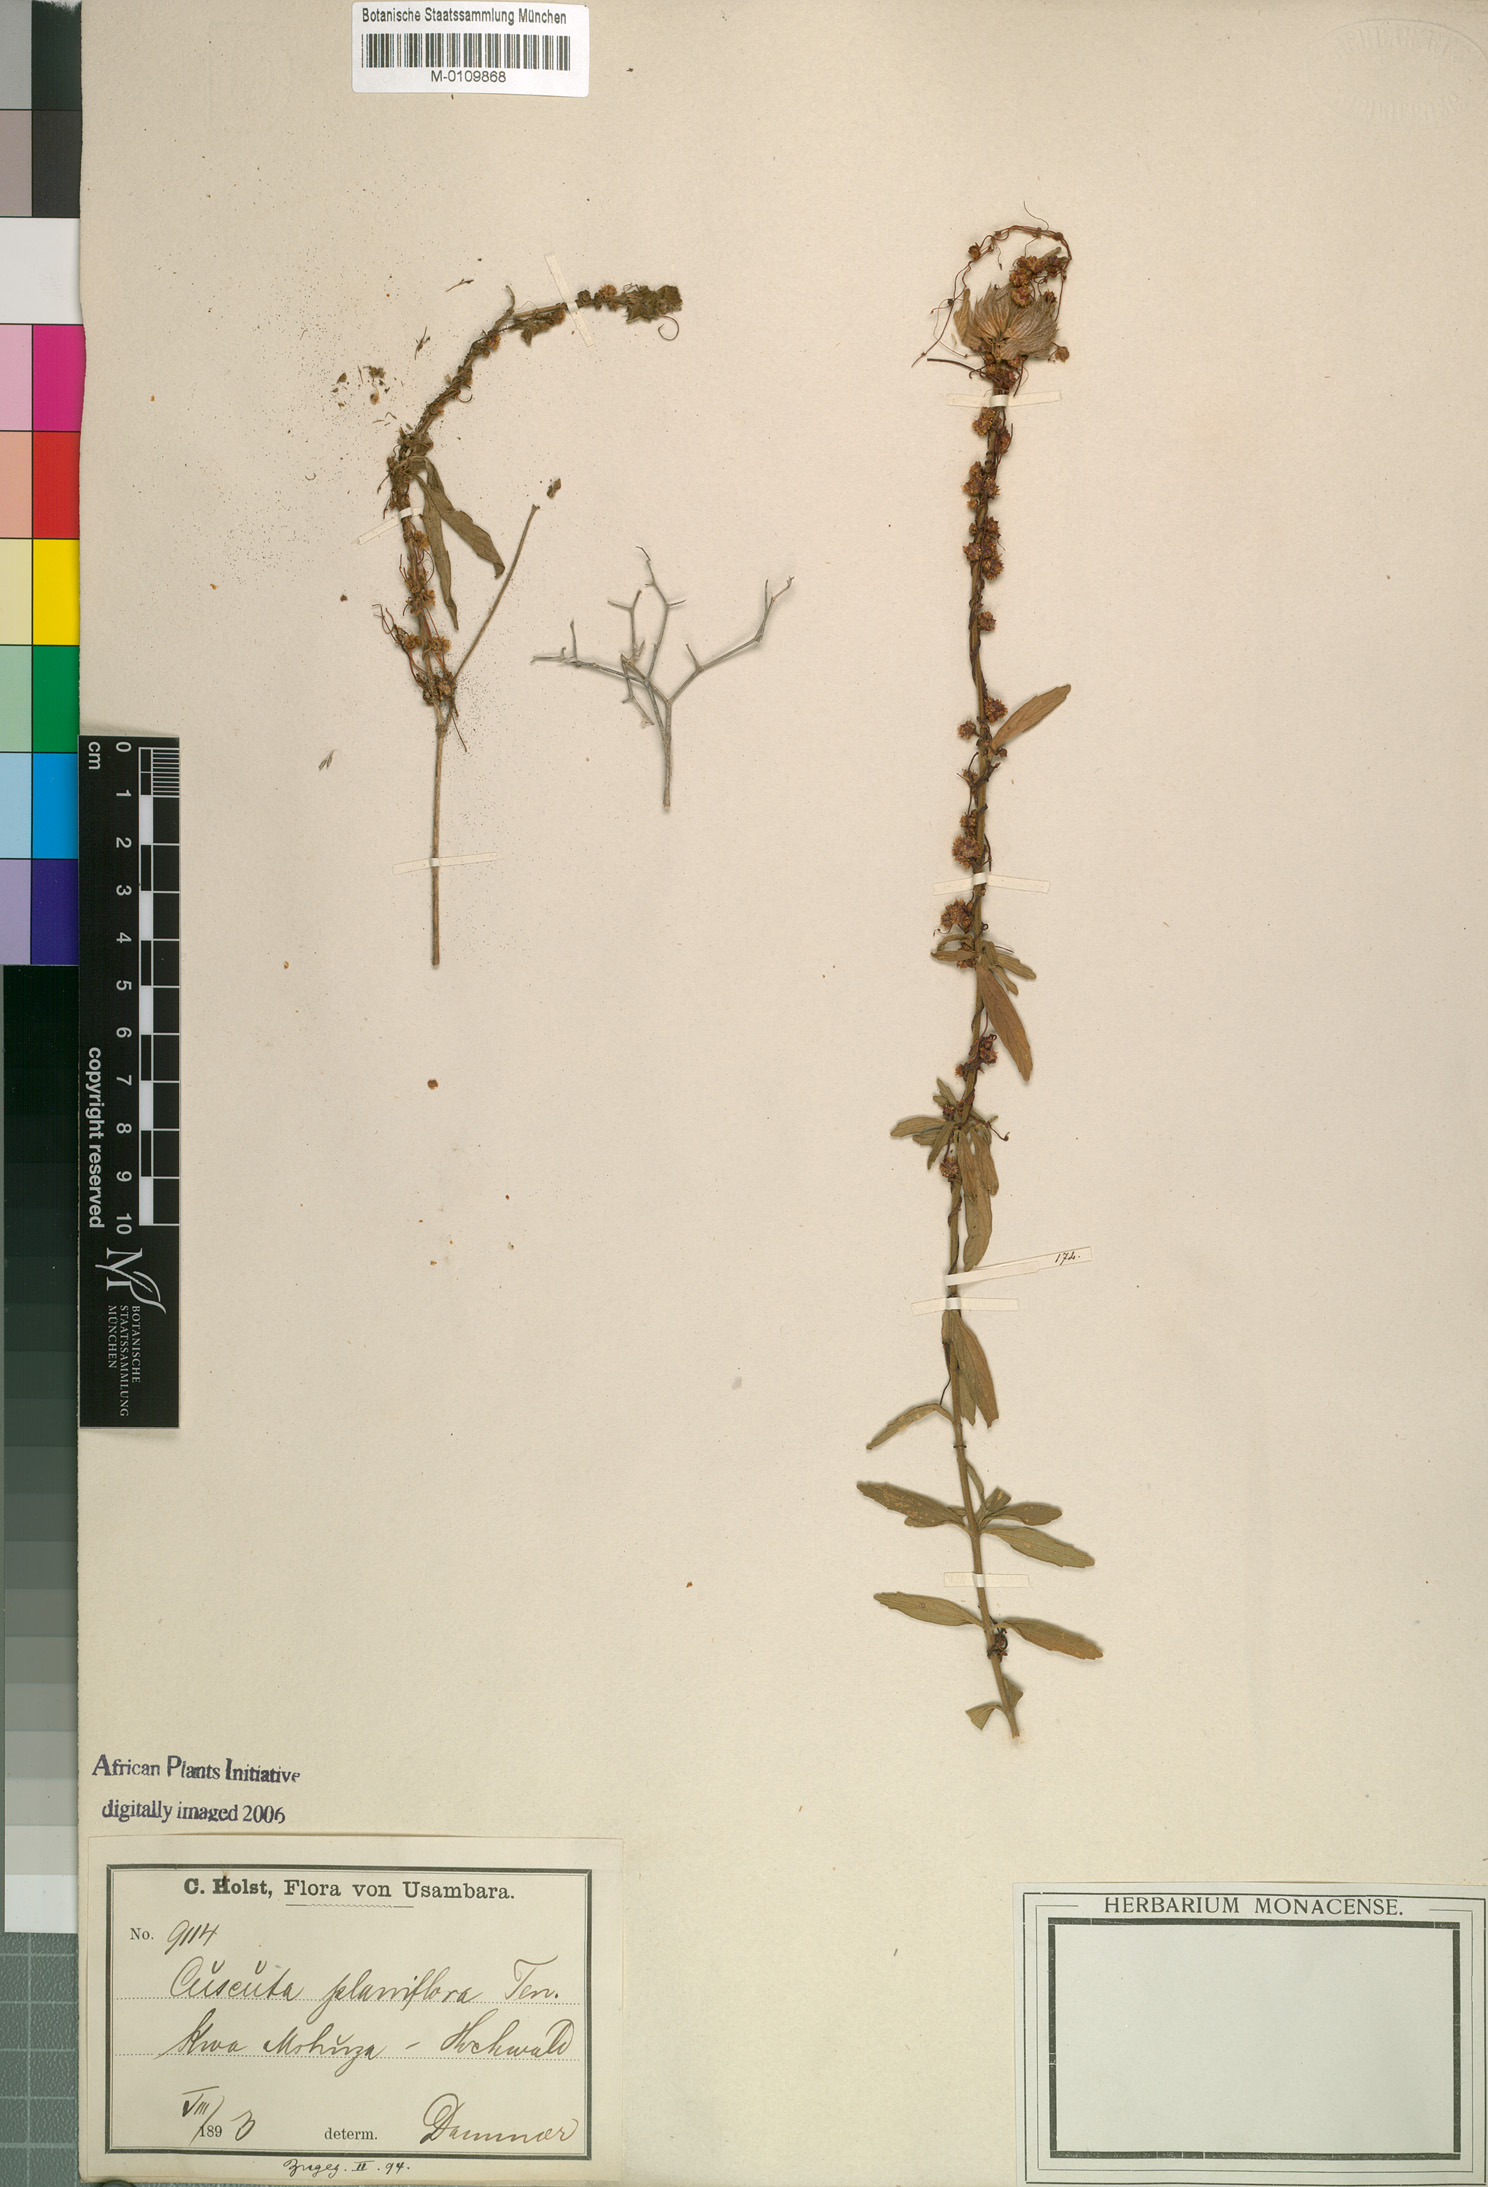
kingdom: Plantae
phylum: Tracheophyta
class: Magnoliopsida
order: Solanales
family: Convolvulaceae
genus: Cuscuta
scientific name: Cuscuta
